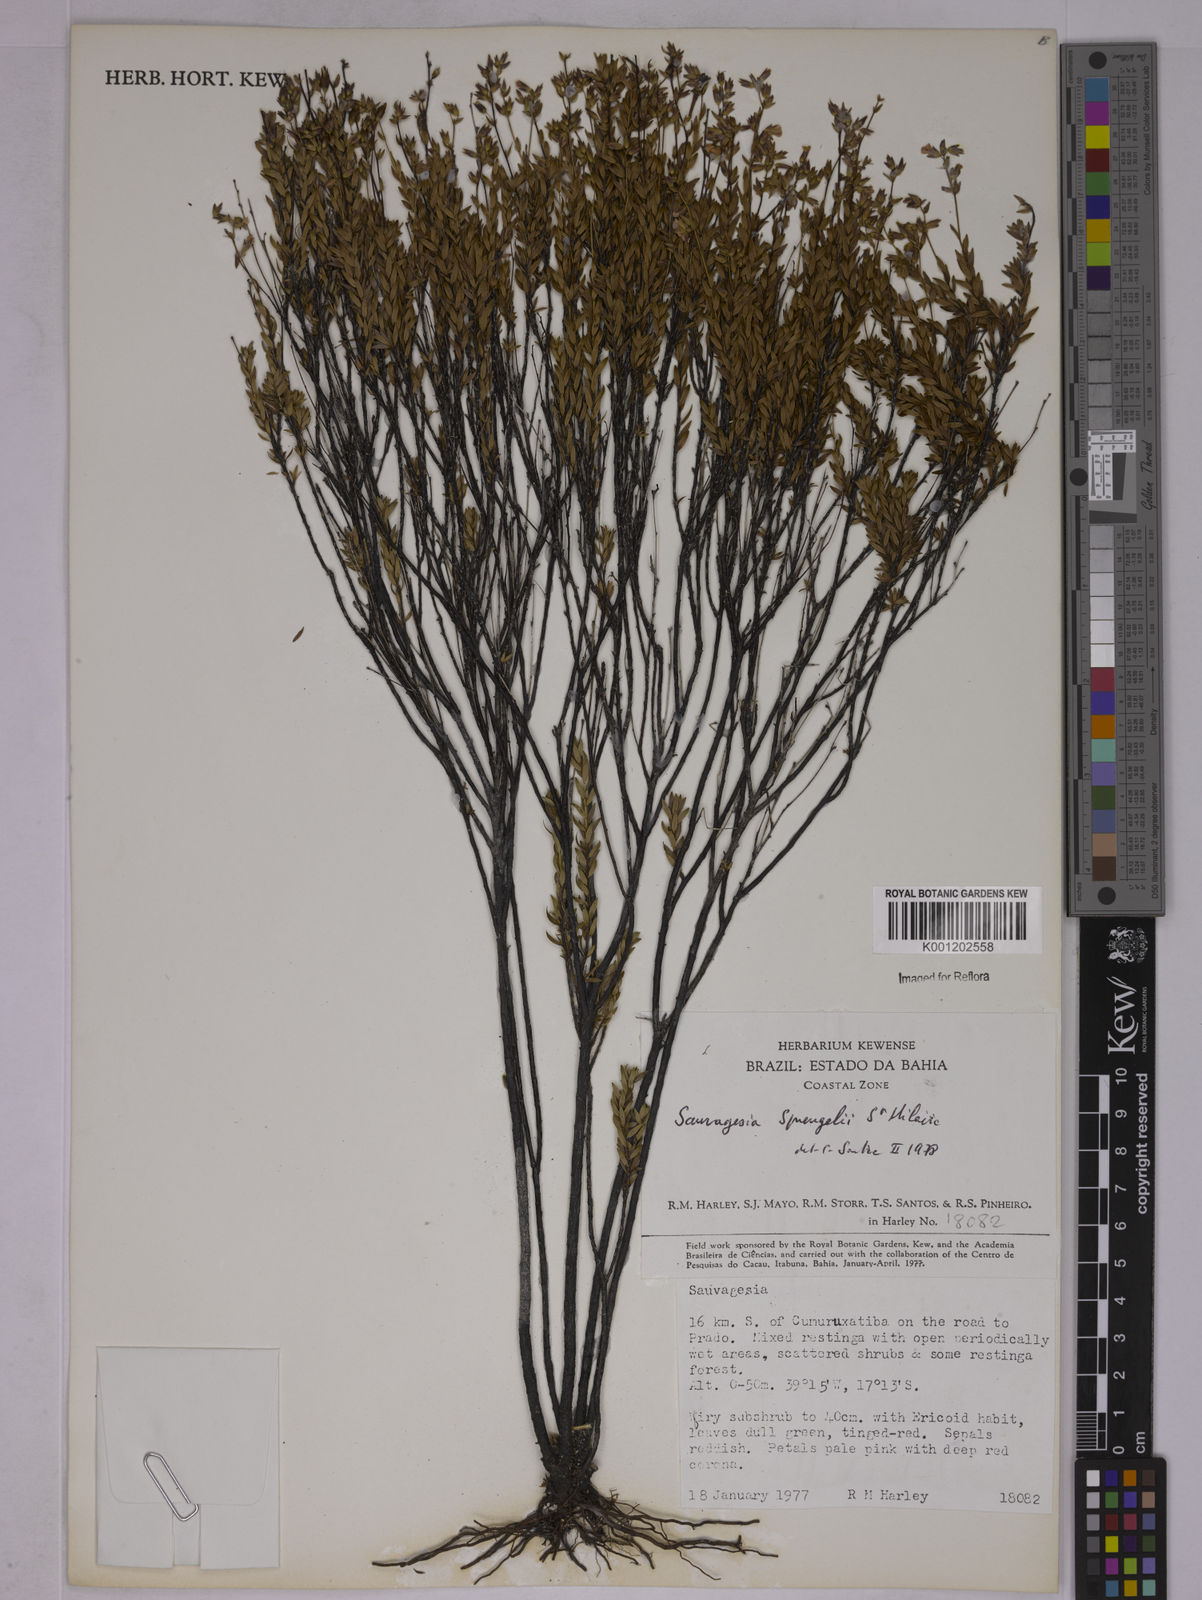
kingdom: Plantae
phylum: Tracheophyta
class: Magnoliopsida
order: Malpighiales
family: Ochnaceae
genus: Sauvagesia
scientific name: Sauvagesia sprengelii
